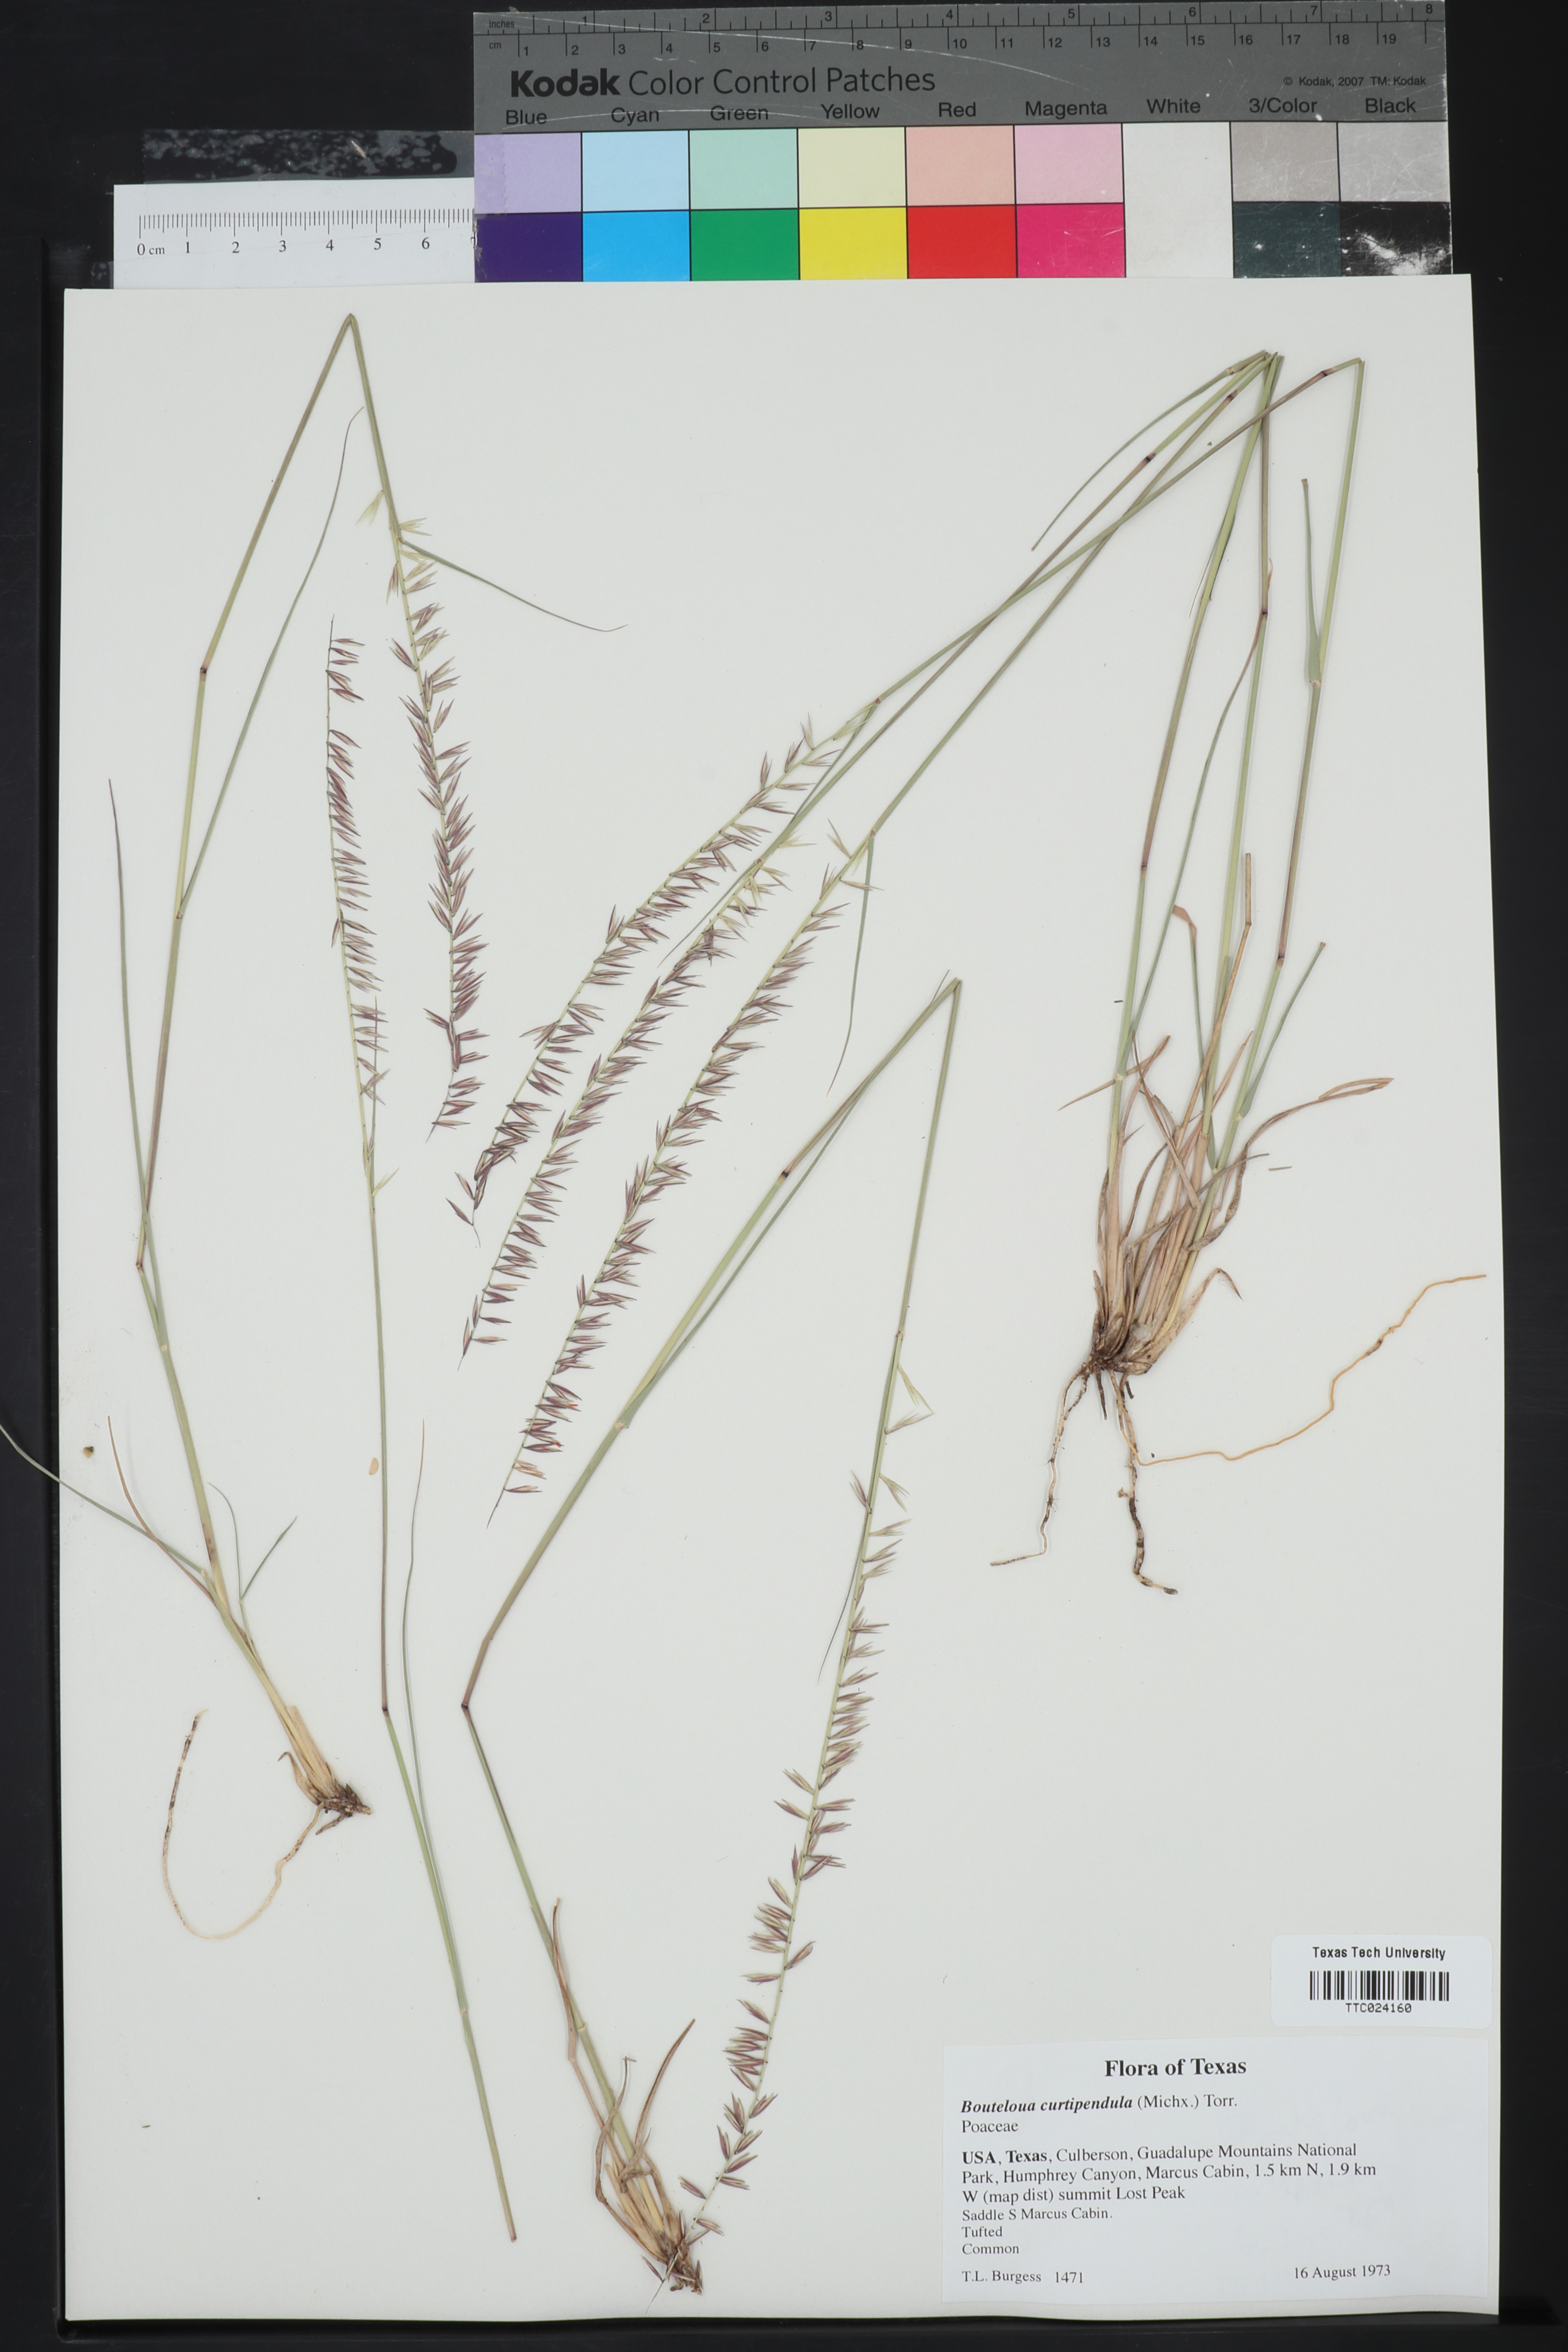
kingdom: Plantae
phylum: Tracheophyta
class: Liliopsida
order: Poales
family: Poaceae
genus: Bouteloua
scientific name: Bouteloua curtipendula
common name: Side-oats grama
